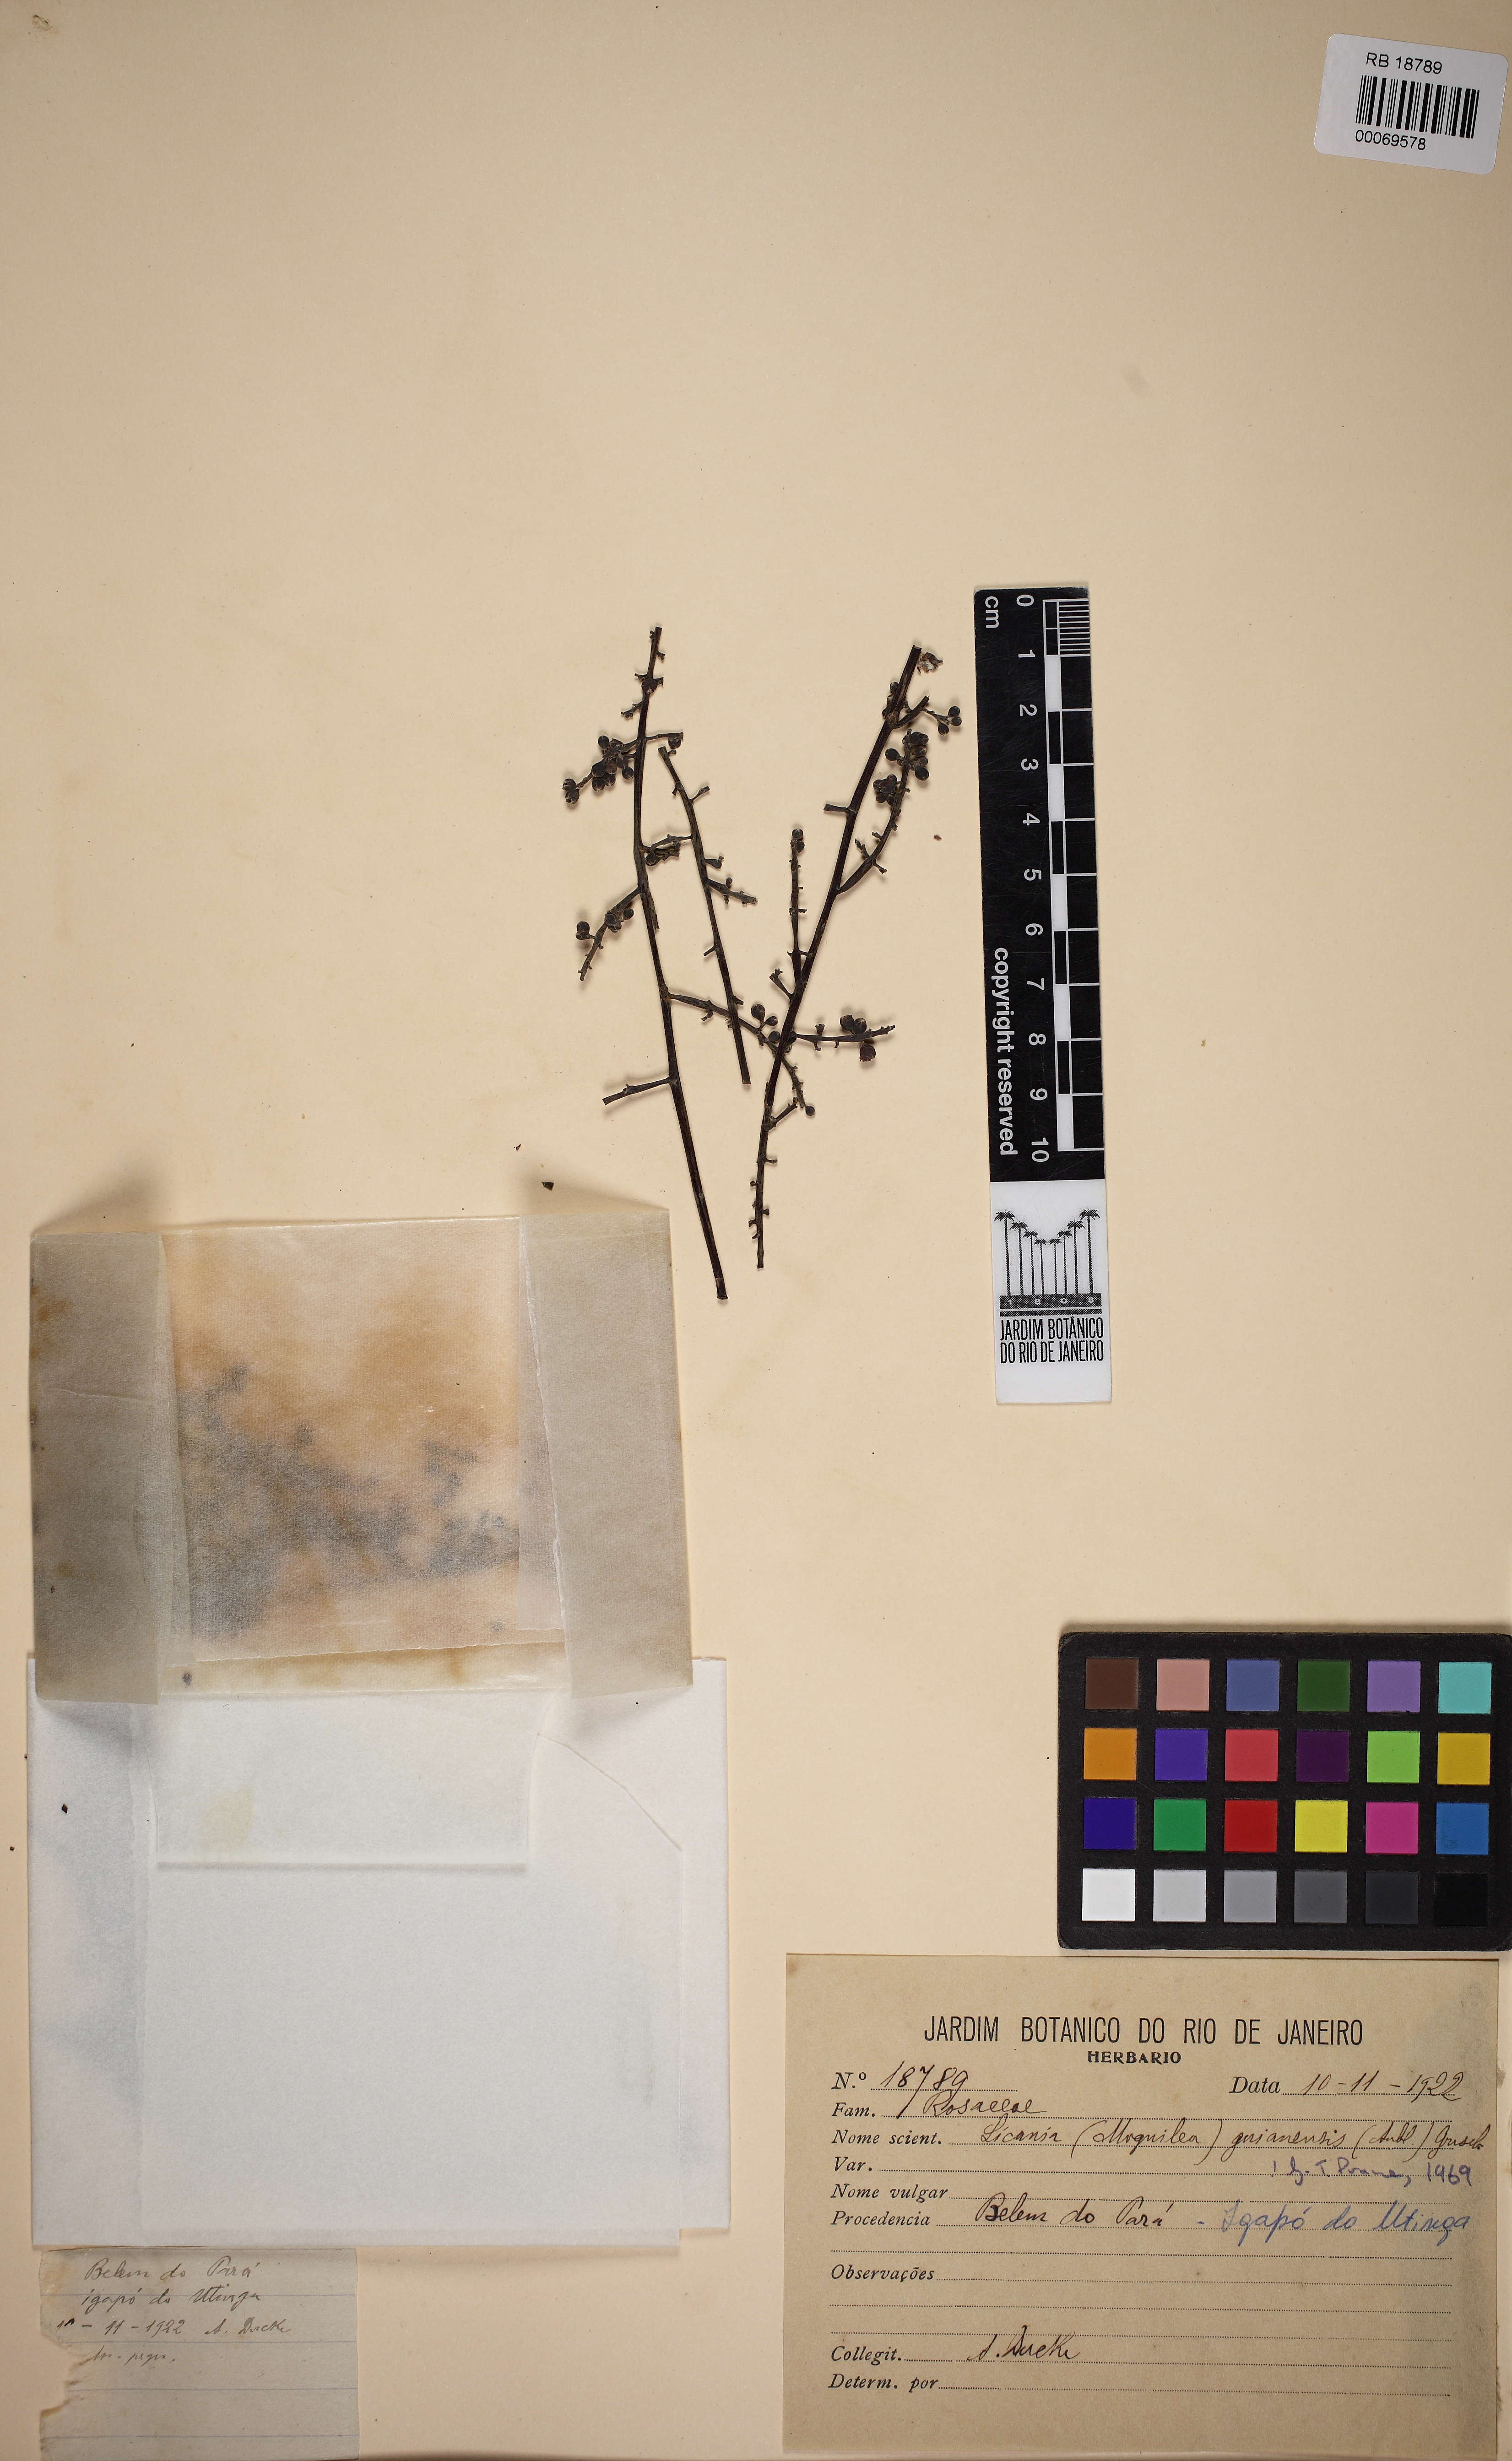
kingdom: Plantae
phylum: Tracheophyta
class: Magnoliopsida
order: Malpighiales
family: Chrysobalanaceae
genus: Moquilea
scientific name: Moquilea guianensis
